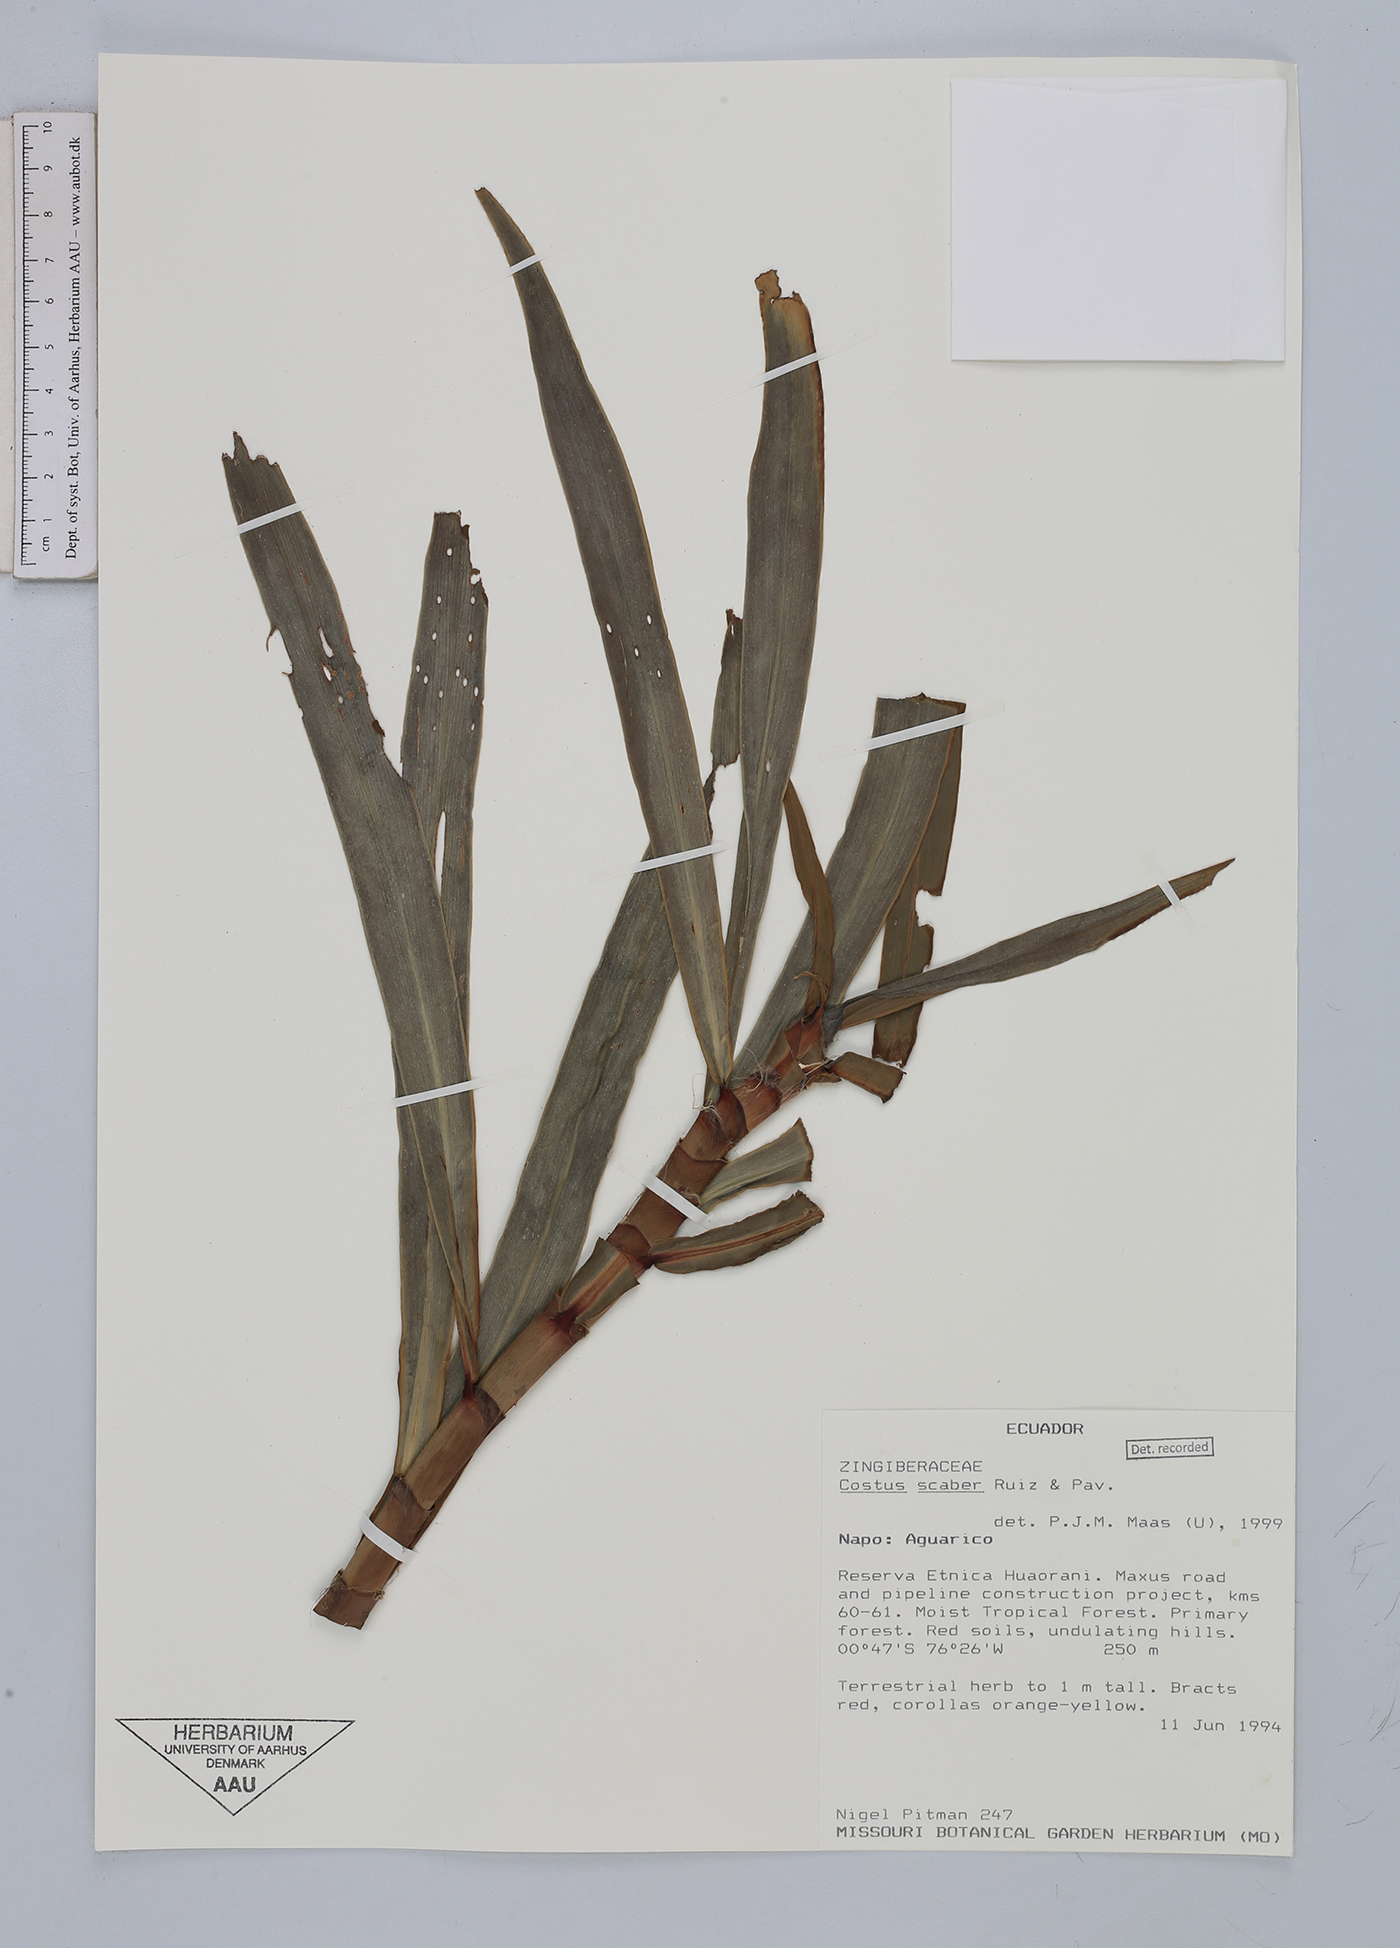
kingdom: Plantae
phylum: Tracheophyta
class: Liliopsida
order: Zingiberales
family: Costaceae
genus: Costus
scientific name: Costus scaber
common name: Spiral head ginger
